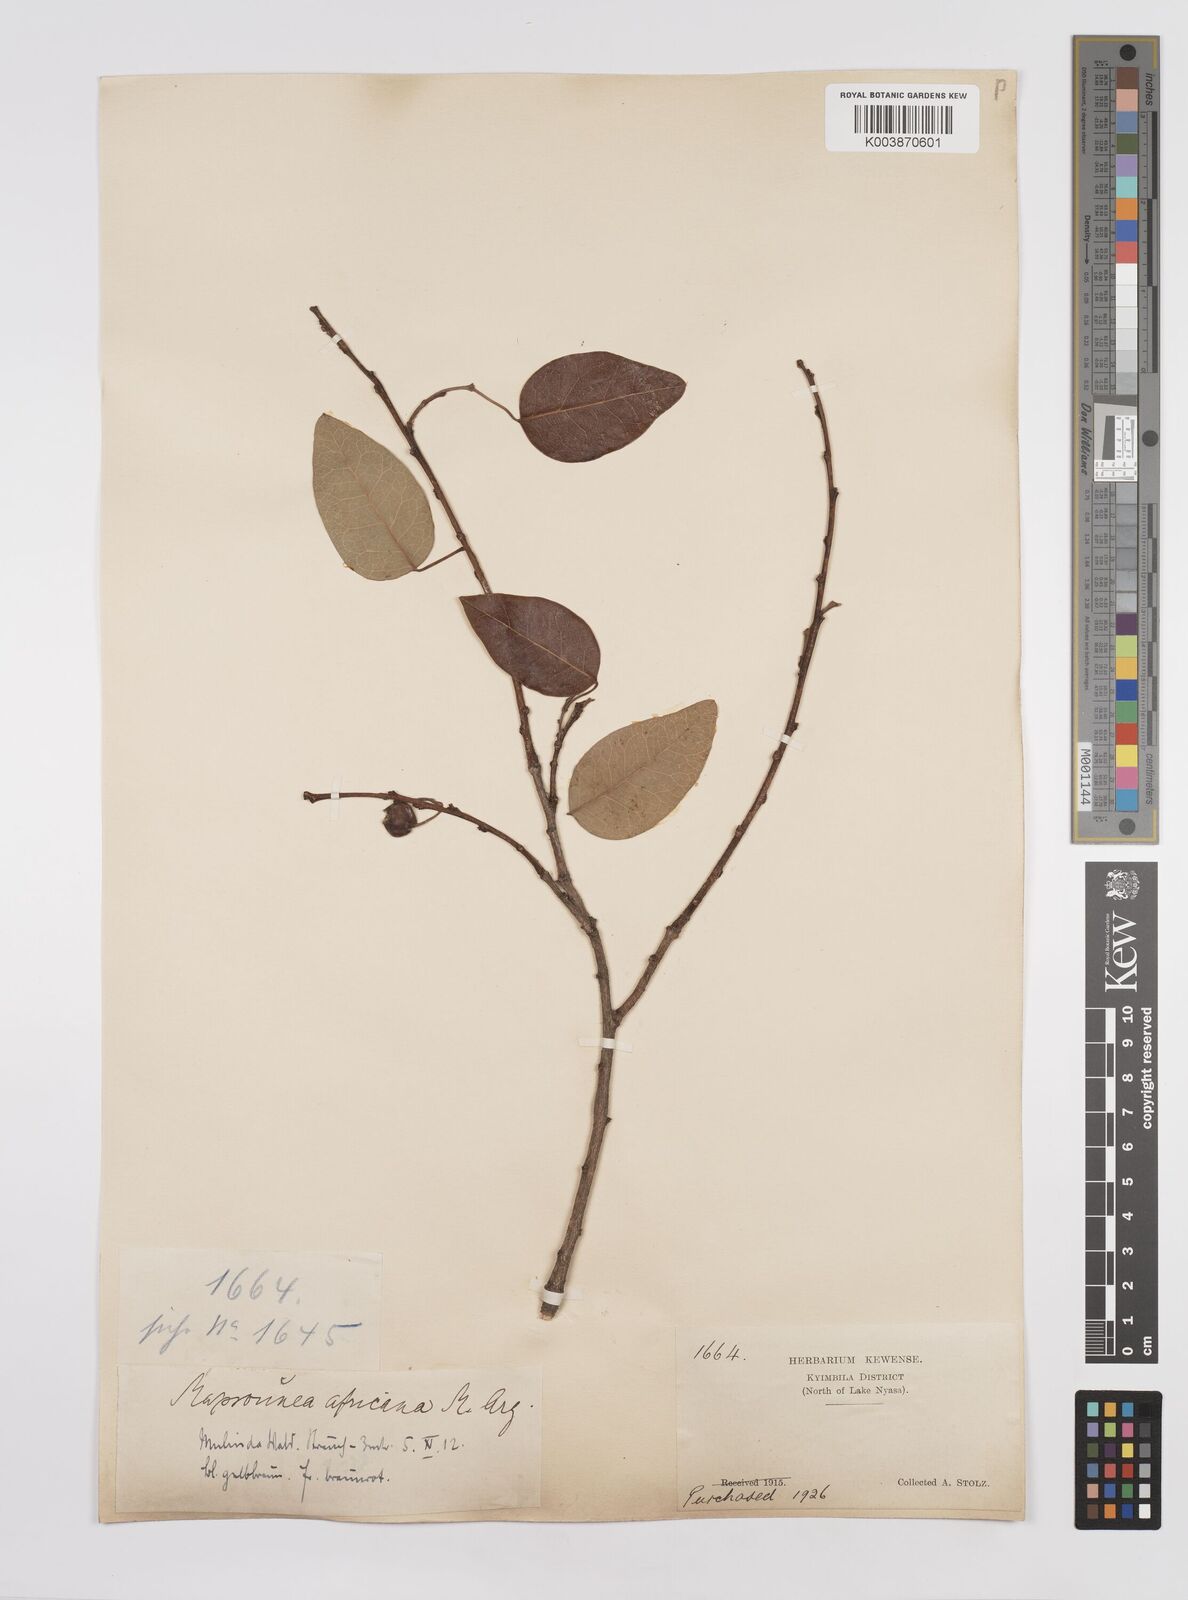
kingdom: Plantae
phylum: Tracheophyta
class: Magnoliopsida
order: Malpighiales
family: Euphorbiaceae
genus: Maprounea
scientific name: Maprounea africana
